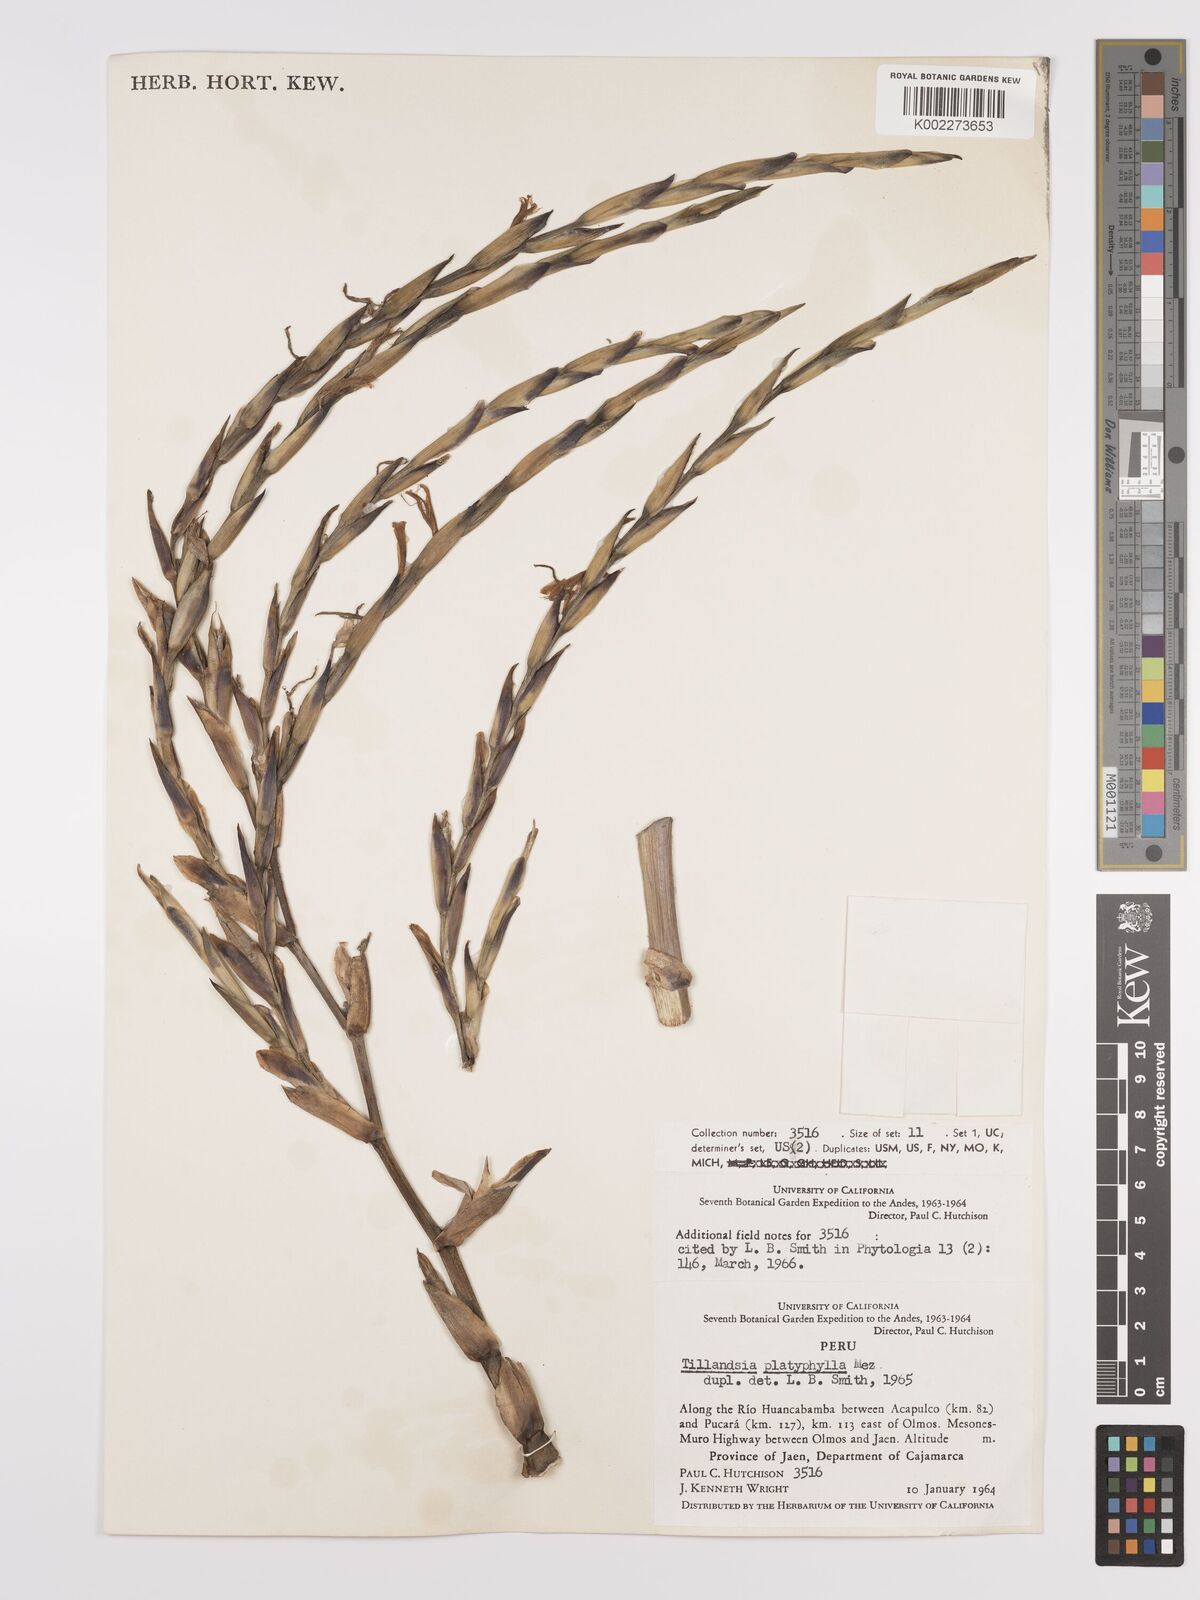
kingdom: Plantae
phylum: Tracheophyta
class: Liliopsida
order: Poales
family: Bromeliaceae
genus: Tillandsia
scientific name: Tillandsia platyphylla
